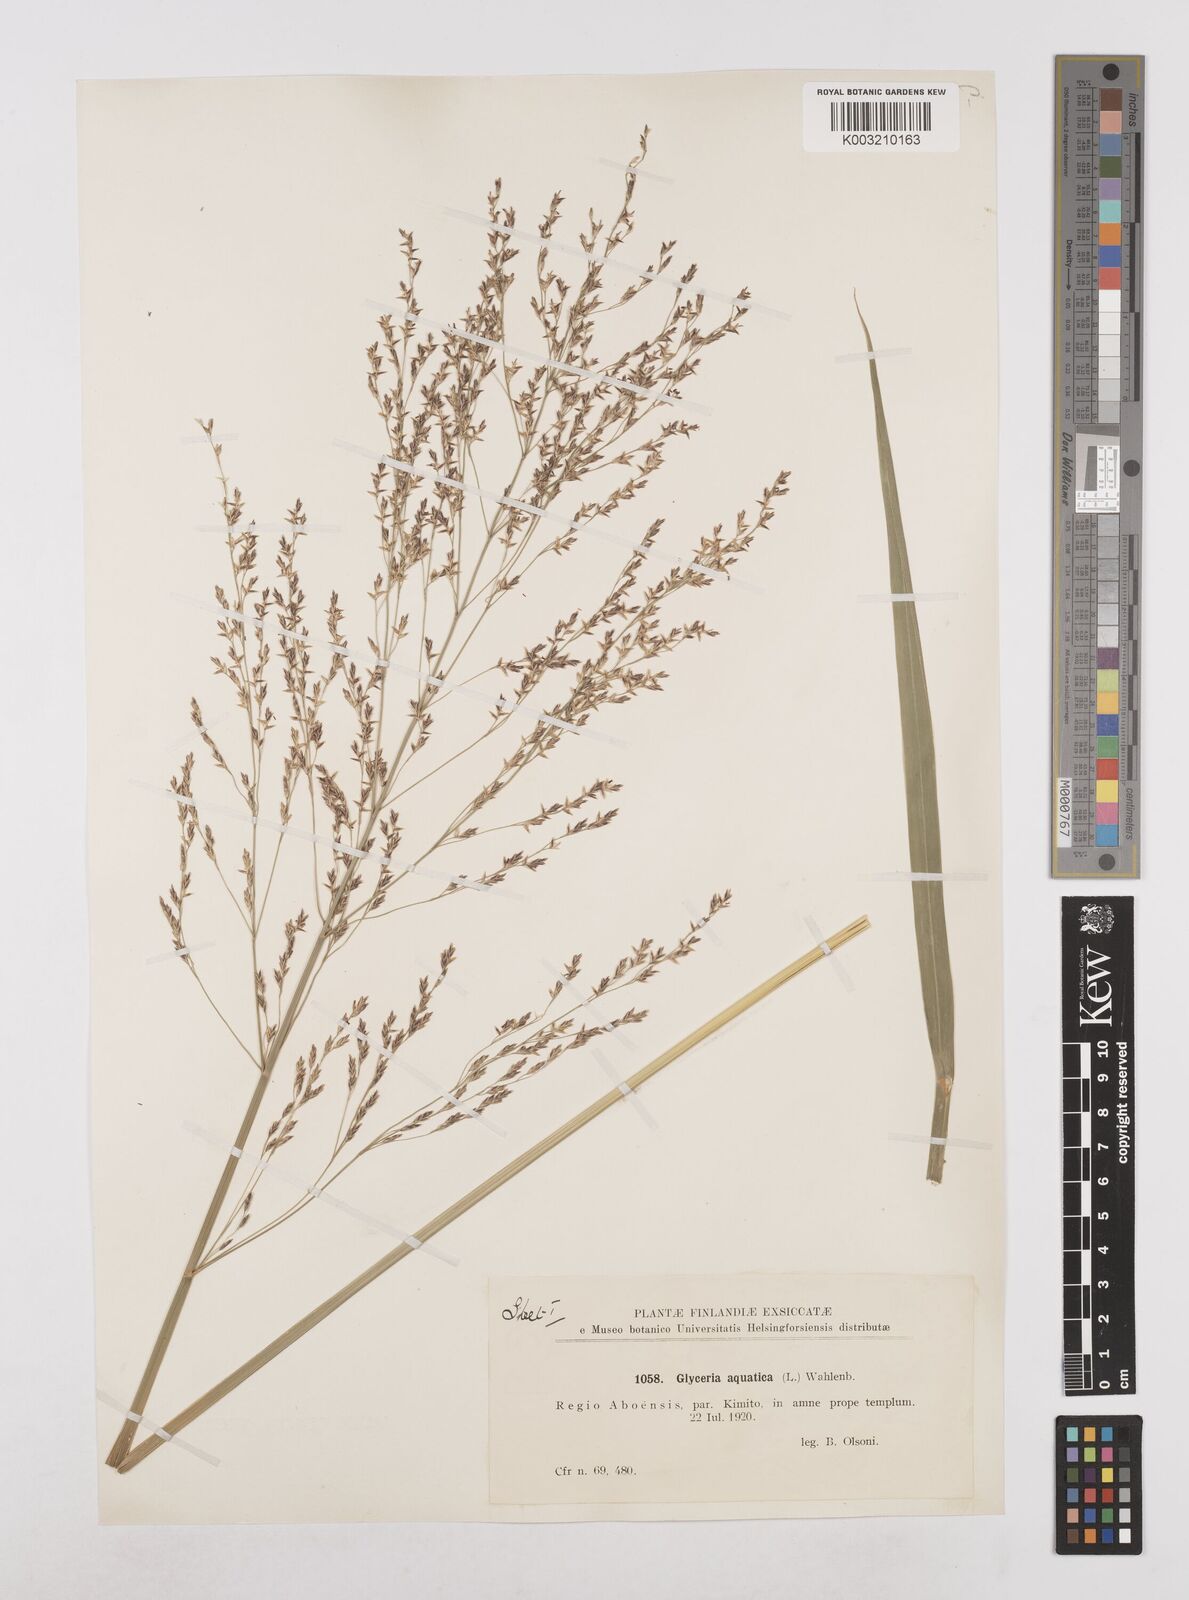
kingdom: Plantae
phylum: Tracheophyta
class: Liliopsida
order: Poales
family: Poaceae
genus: Glyceria
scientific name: Glyceria maxima
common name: Reed mannagrass
